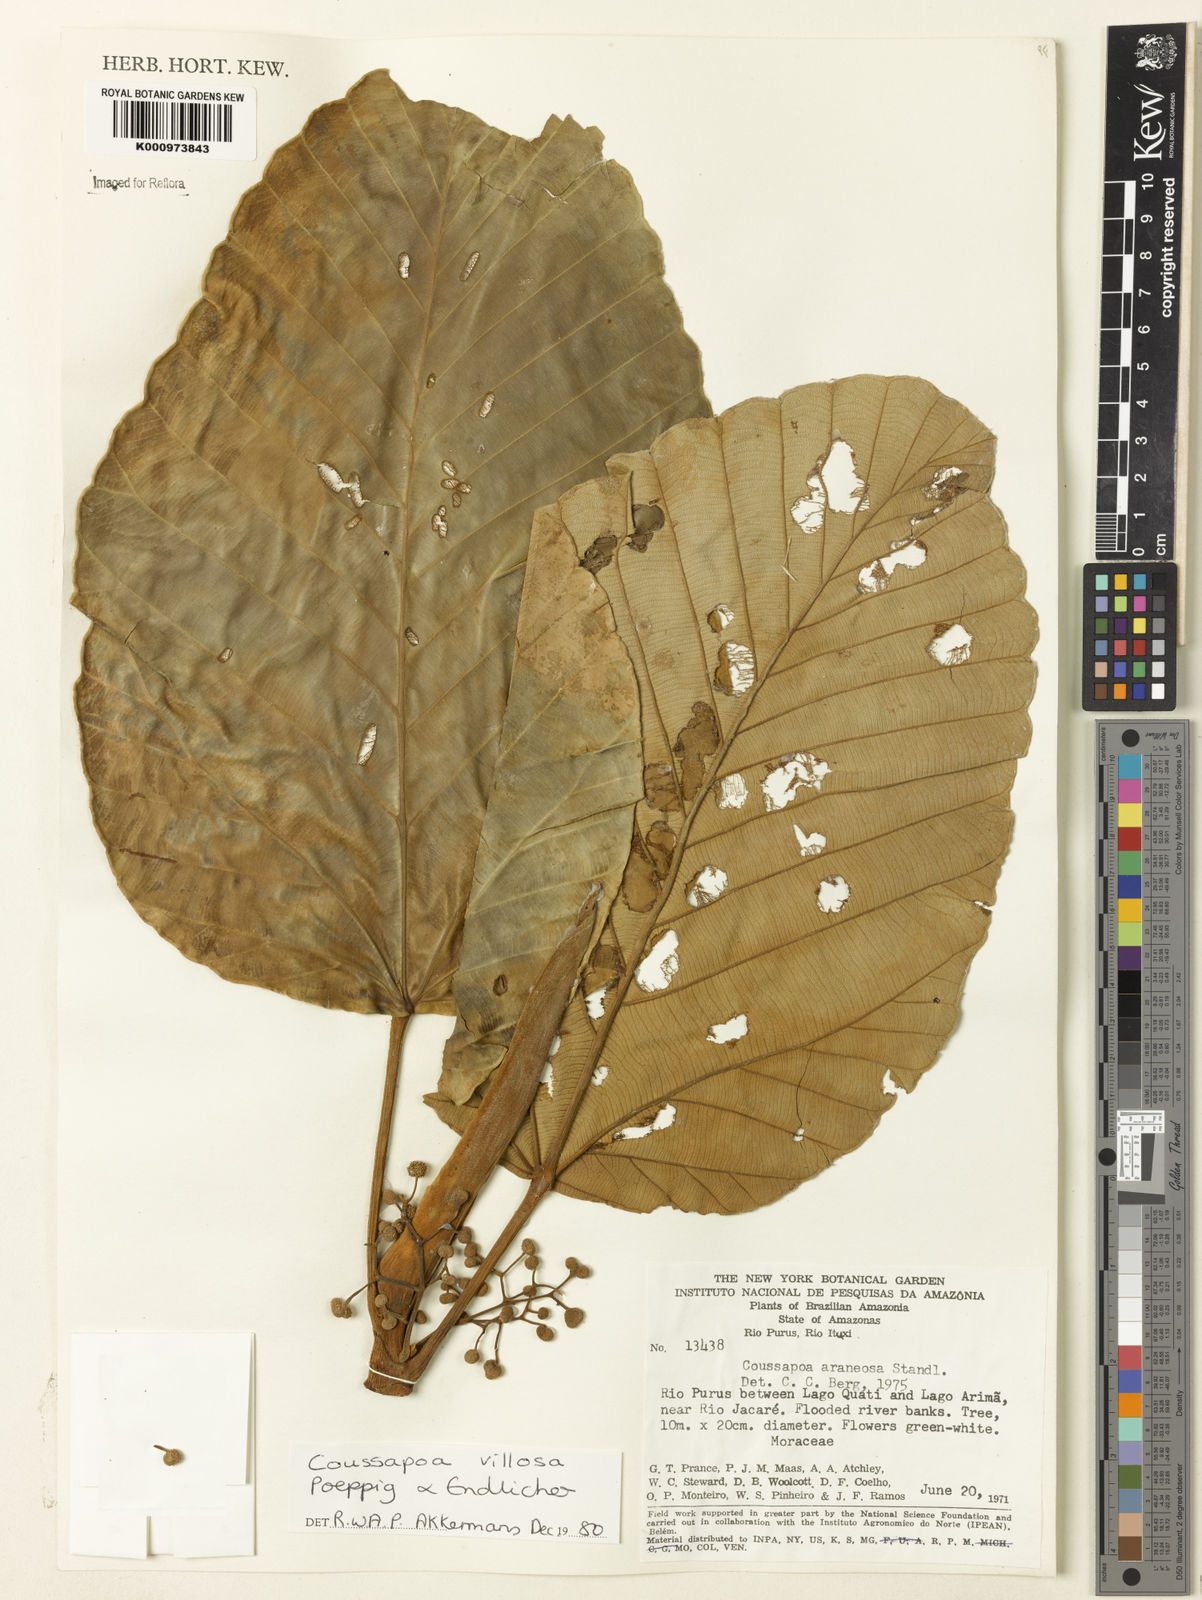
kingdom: Plantae
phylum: Tracheophyta
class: Magnoliopsida
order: Rosales
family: Urticaceae
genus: Coussapoa
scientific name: Coussapoa villosa
